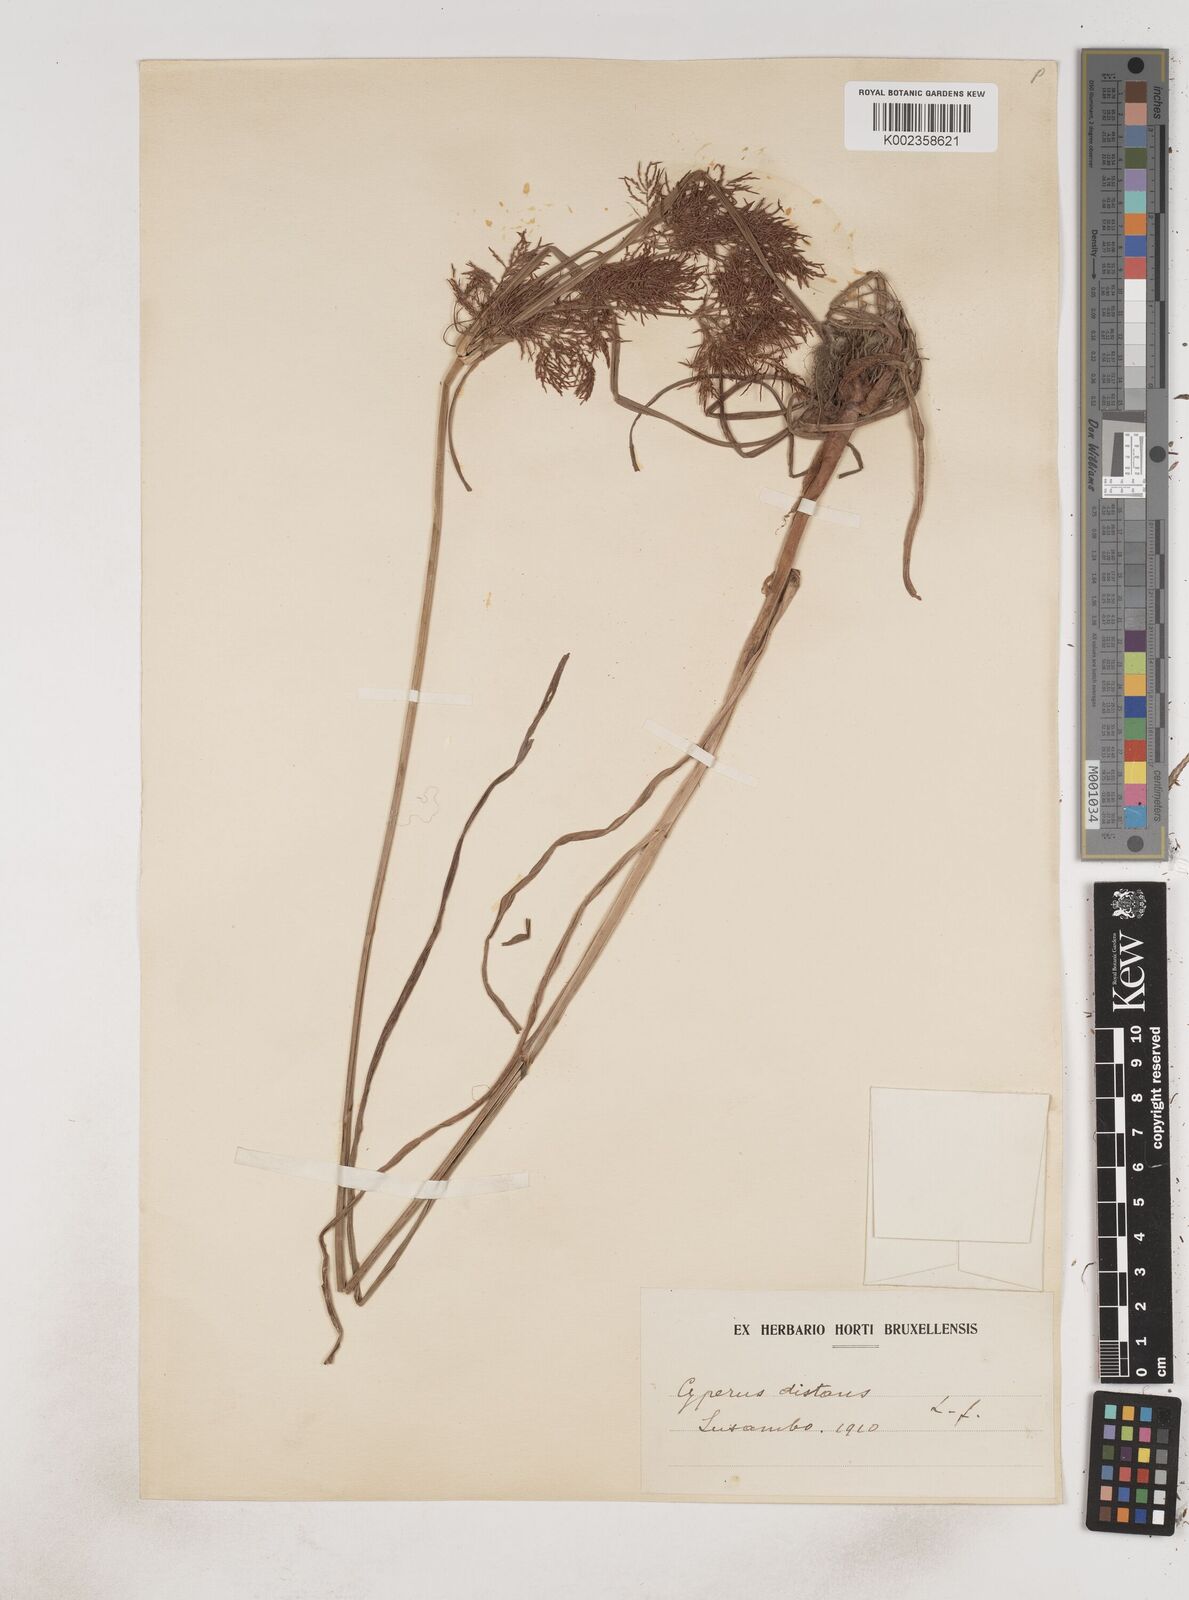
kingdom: Plantae
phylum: Tracheophyta
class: Liliopsida
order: Poales
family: Cyperaceae
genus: Cyperus
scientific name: Cyperus distans
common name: Slender cyperus
